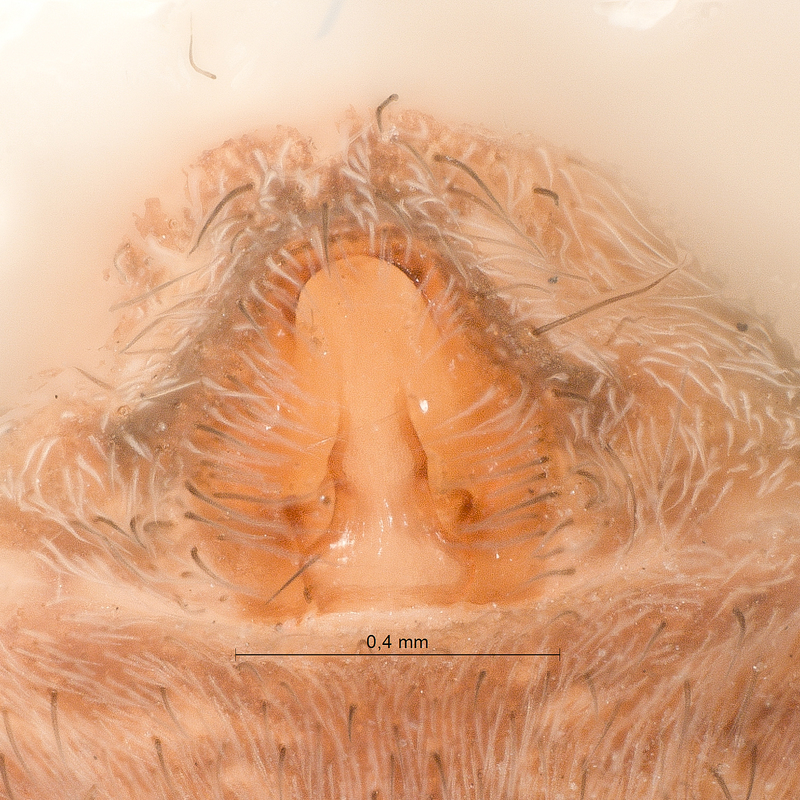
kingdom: Animalia
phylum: Arthropoda
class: Arachnida
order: Araneae
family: Lycosidae
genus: Pardosa
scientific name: Pardosa hortensis
